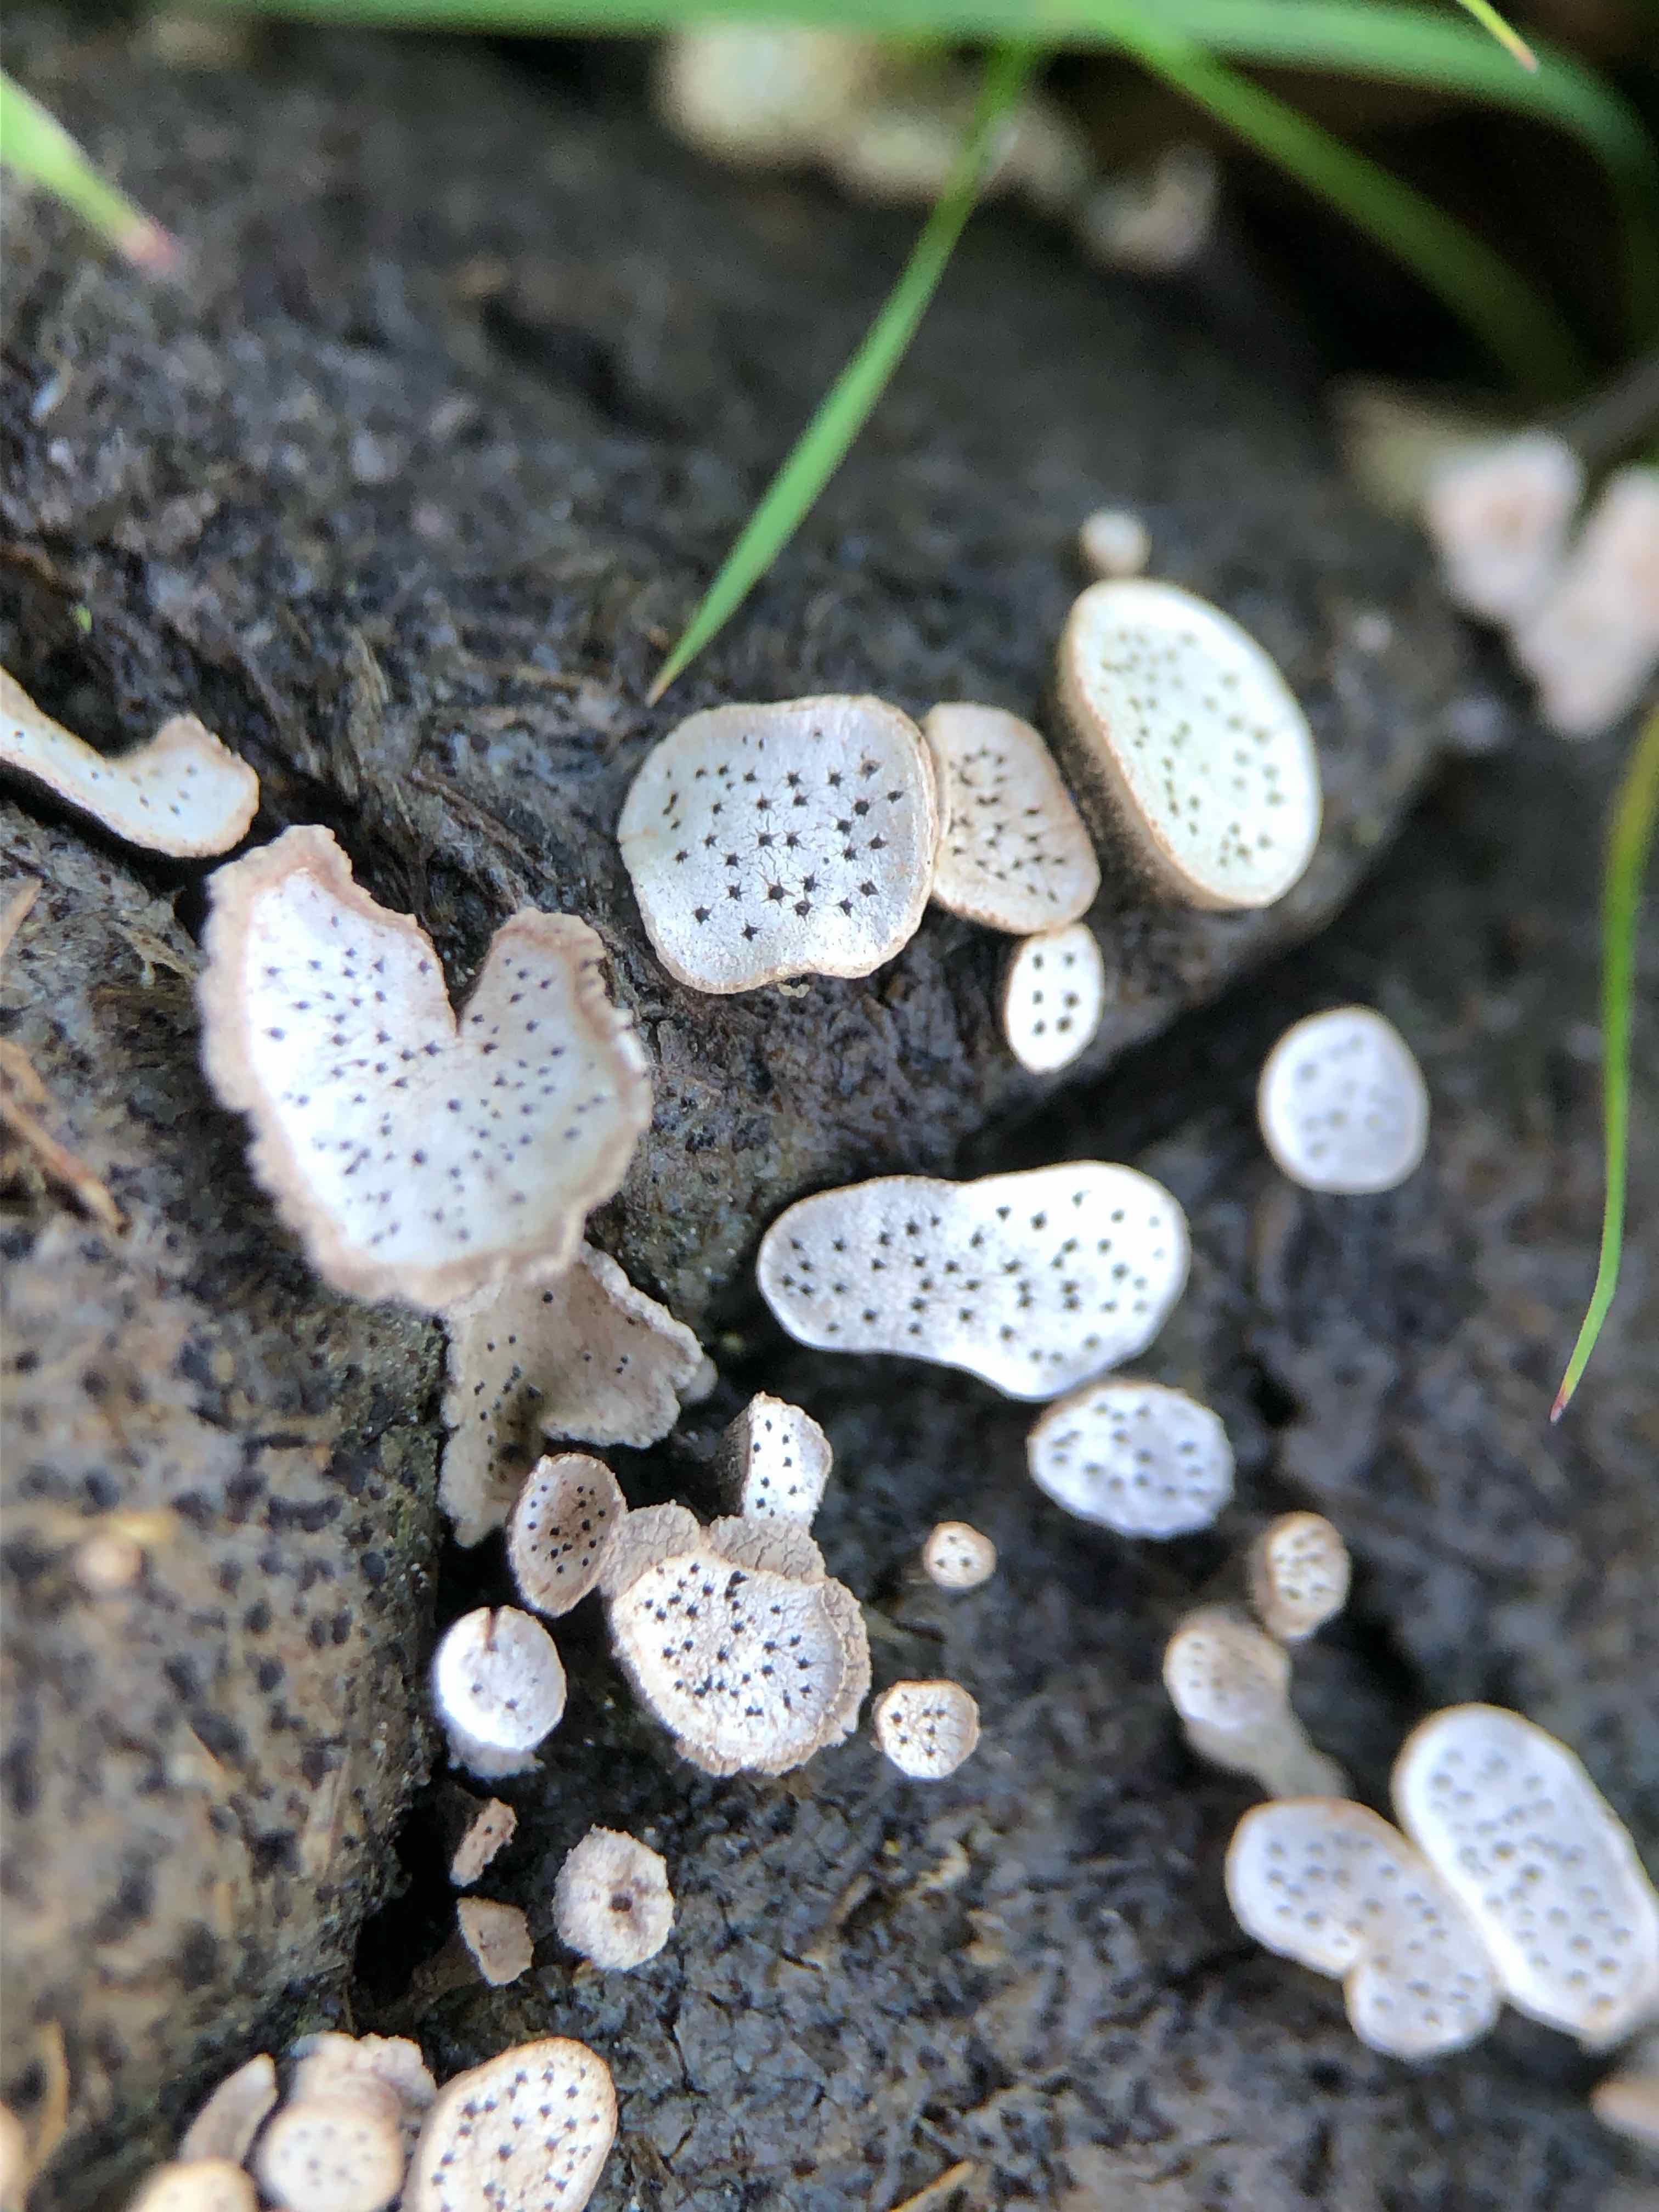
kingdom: Fungi
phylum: Ascomycota
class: Sordariomycetes
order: Xylariales
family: Xylariaceae
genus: Poronia
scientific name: Poronia punctata
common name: stor priksvamp
